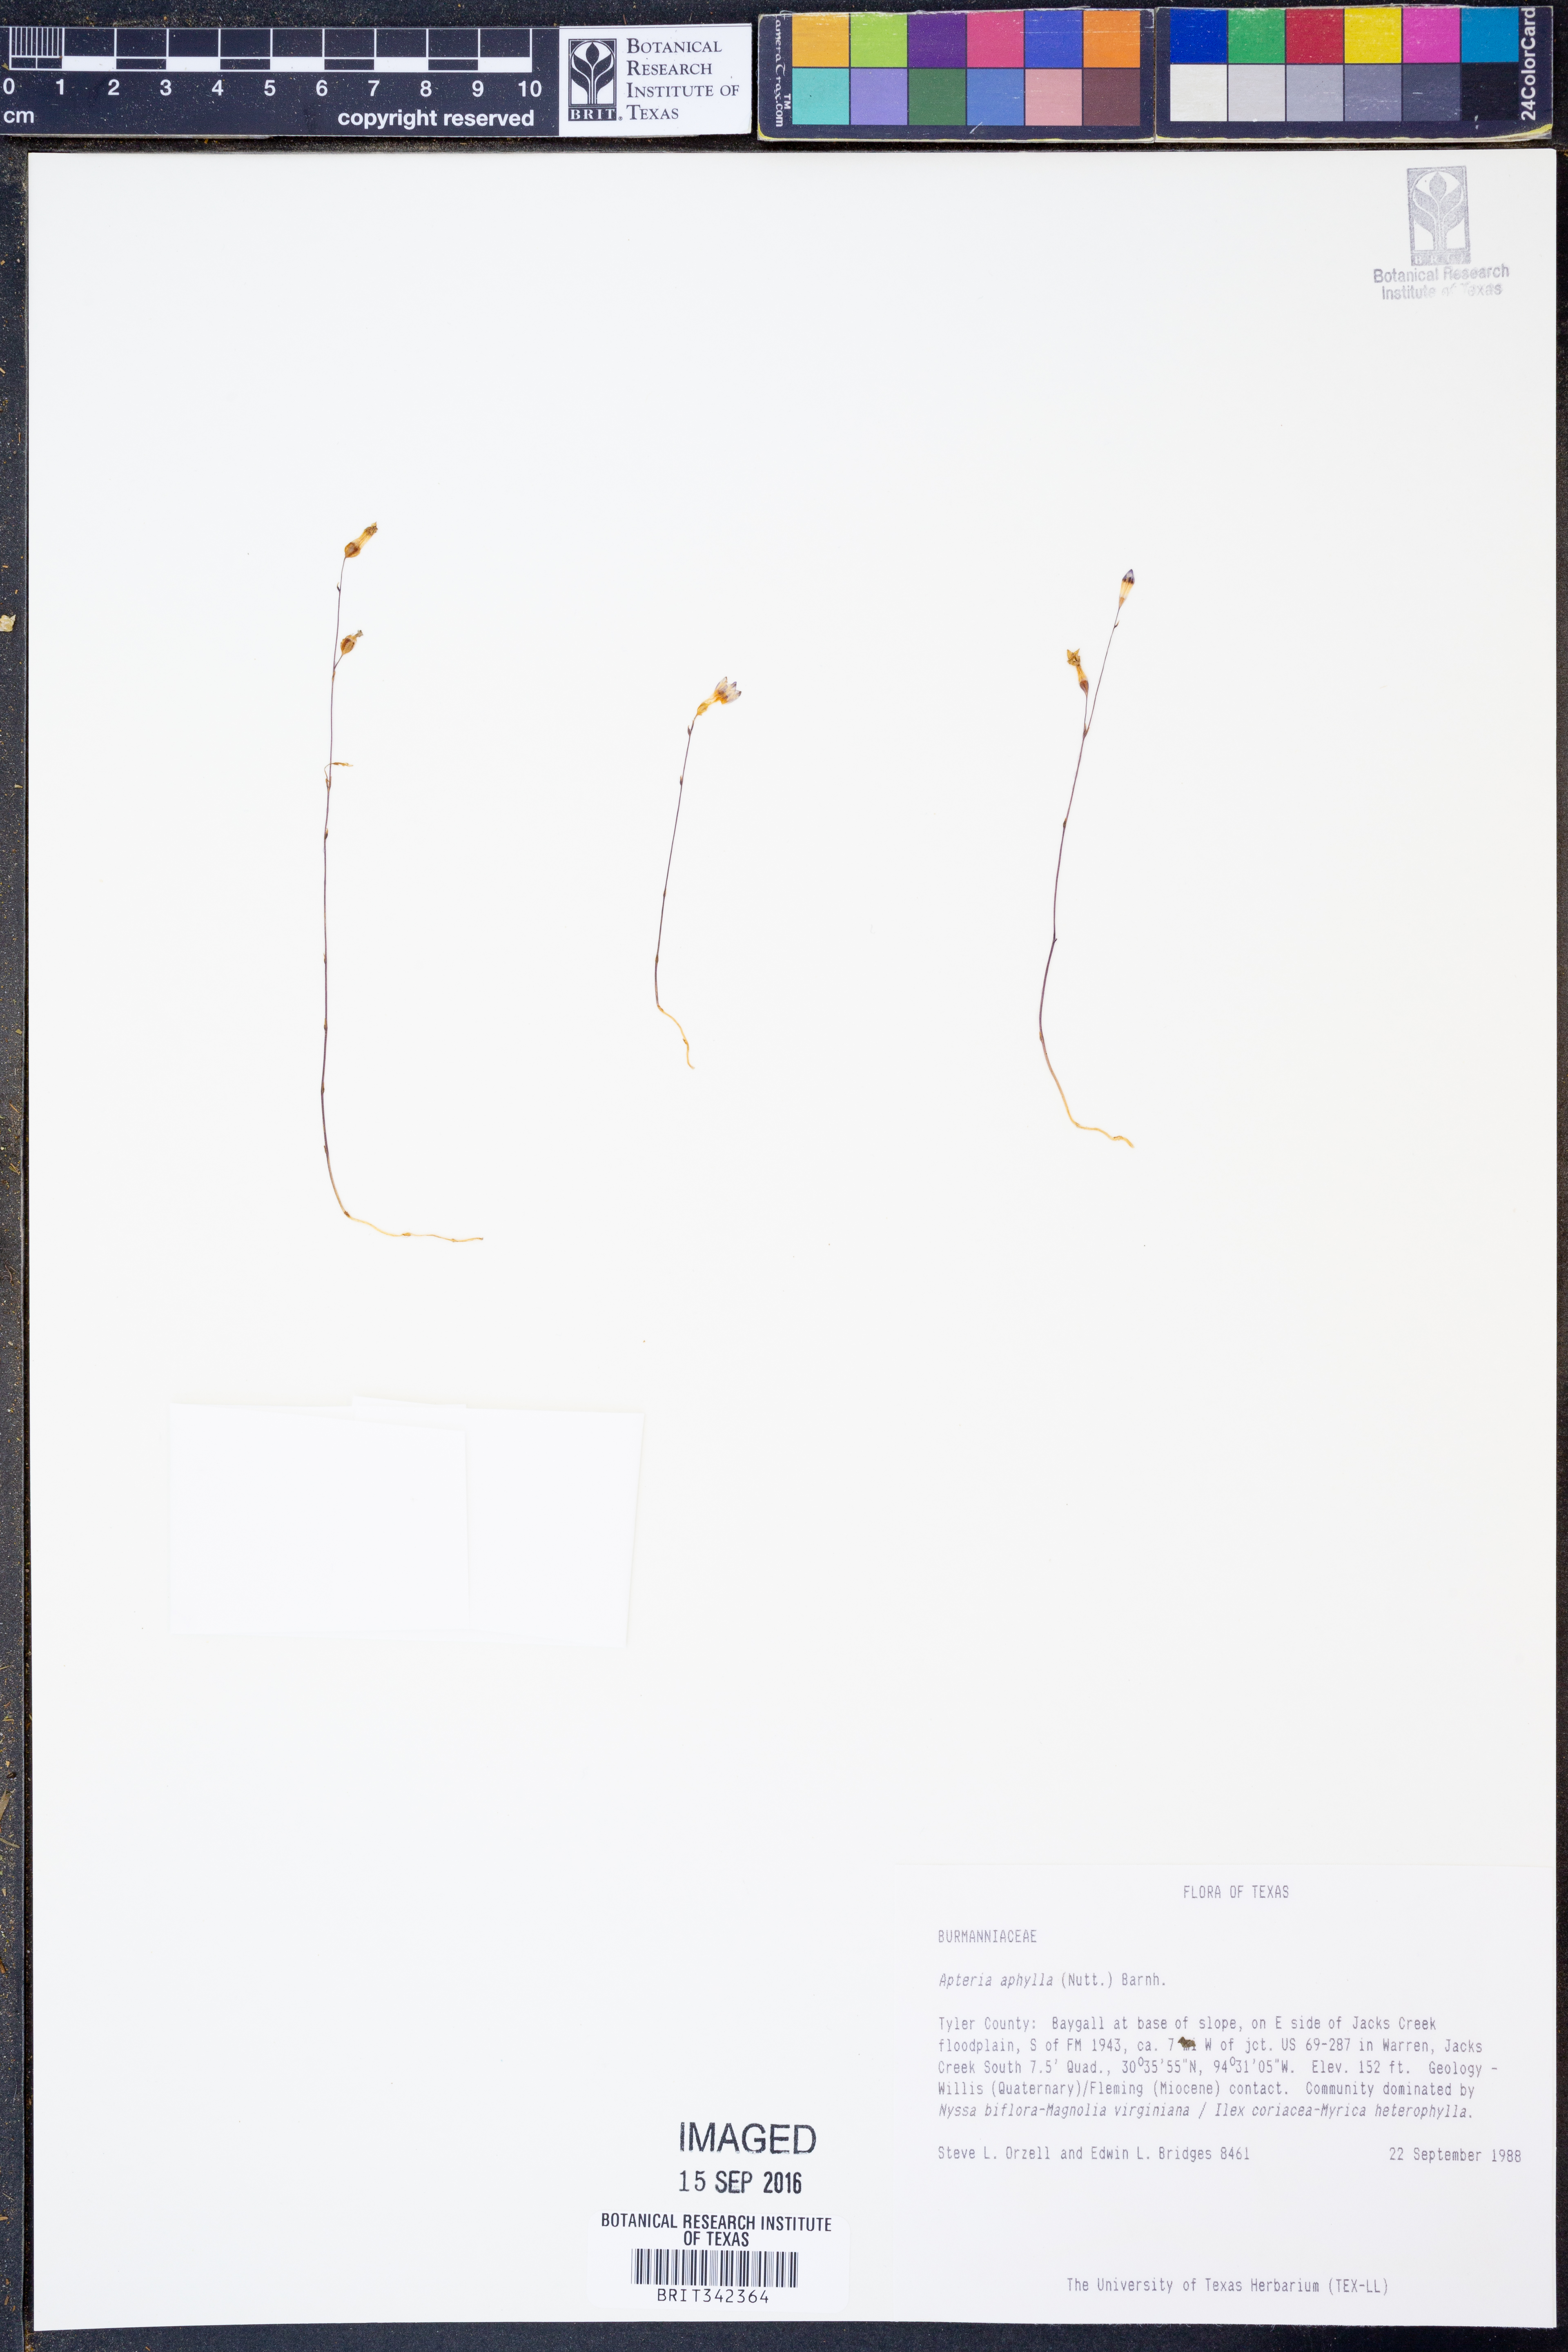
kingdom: Plantae
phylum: Tracheophyta
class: Liliopsida
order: Dioscoreales
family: Burmanniaceae
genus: Apteria
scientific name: Apteria aphylla
